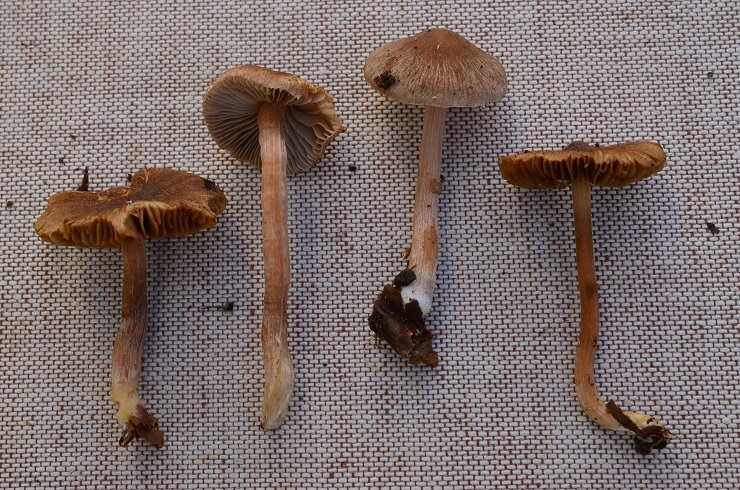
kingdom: Fungi
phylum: Basidiomycota
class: Agaricomycetes
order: Agaricales
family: Inocybaceae
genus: Inocybe
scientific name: Inocybe minimispora
